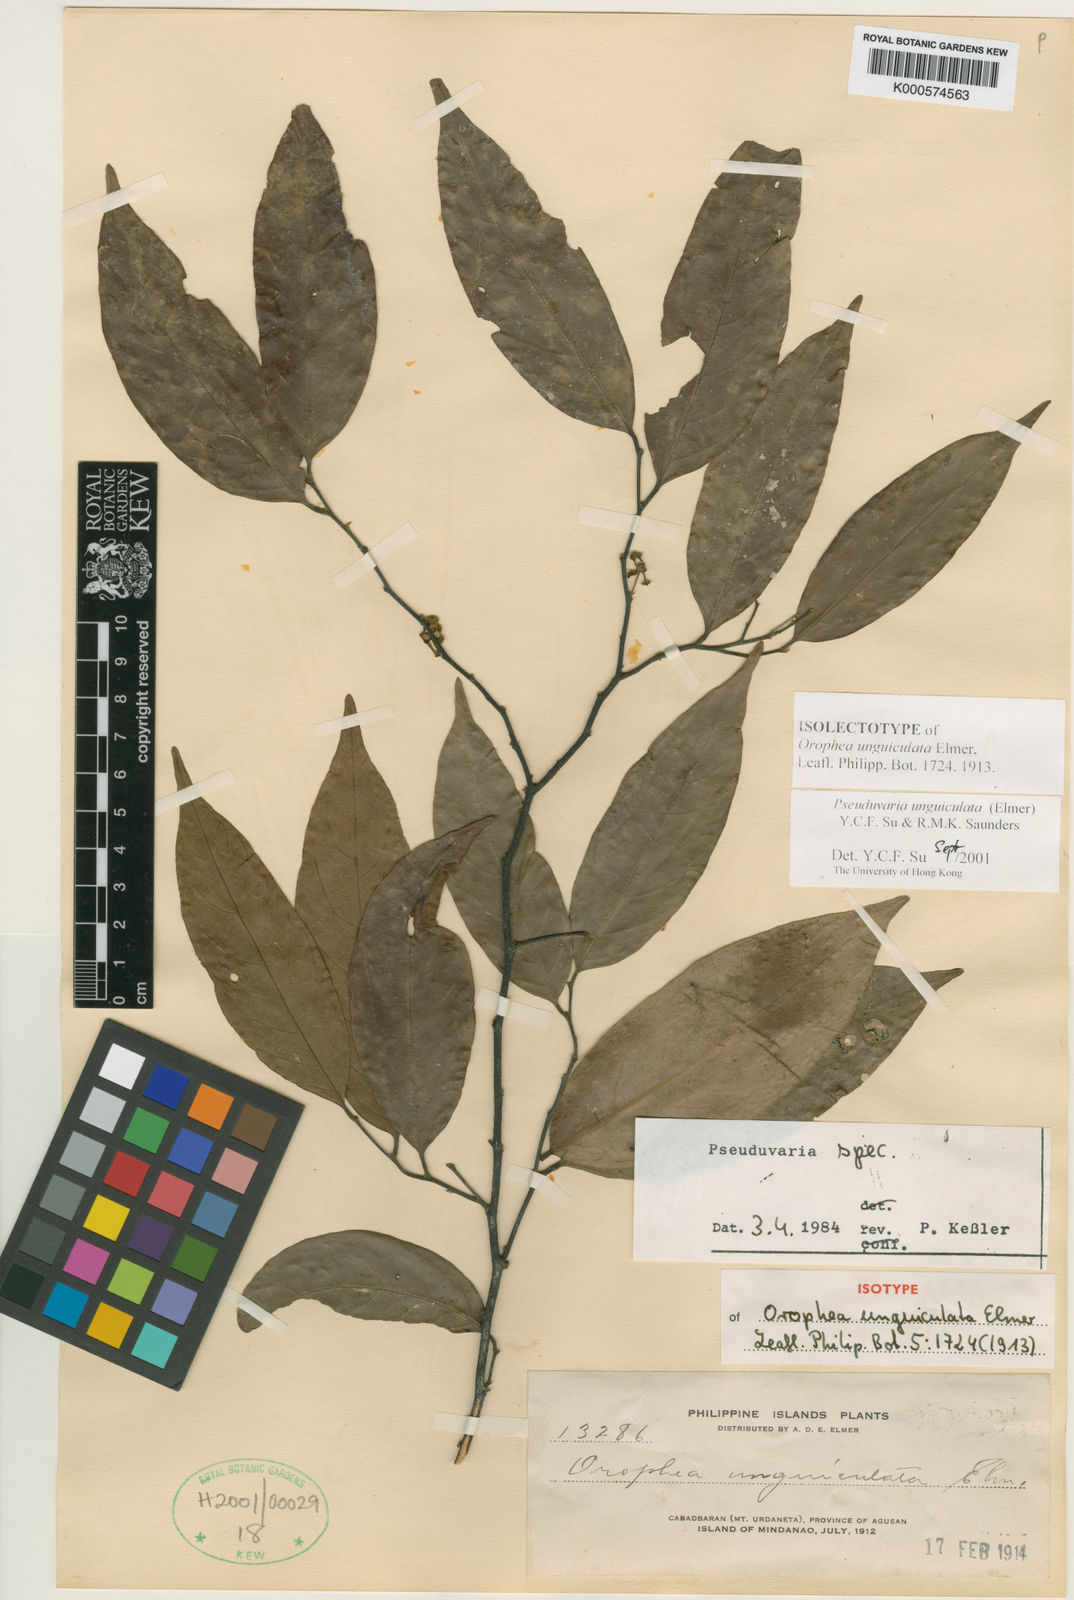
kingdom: Plantae
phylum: Tracheophyta
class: Magnoliopsida
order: Magnoliales
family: Annonaceae
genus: Pseuduvaria
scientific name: Pseuduvaria unguiculata
